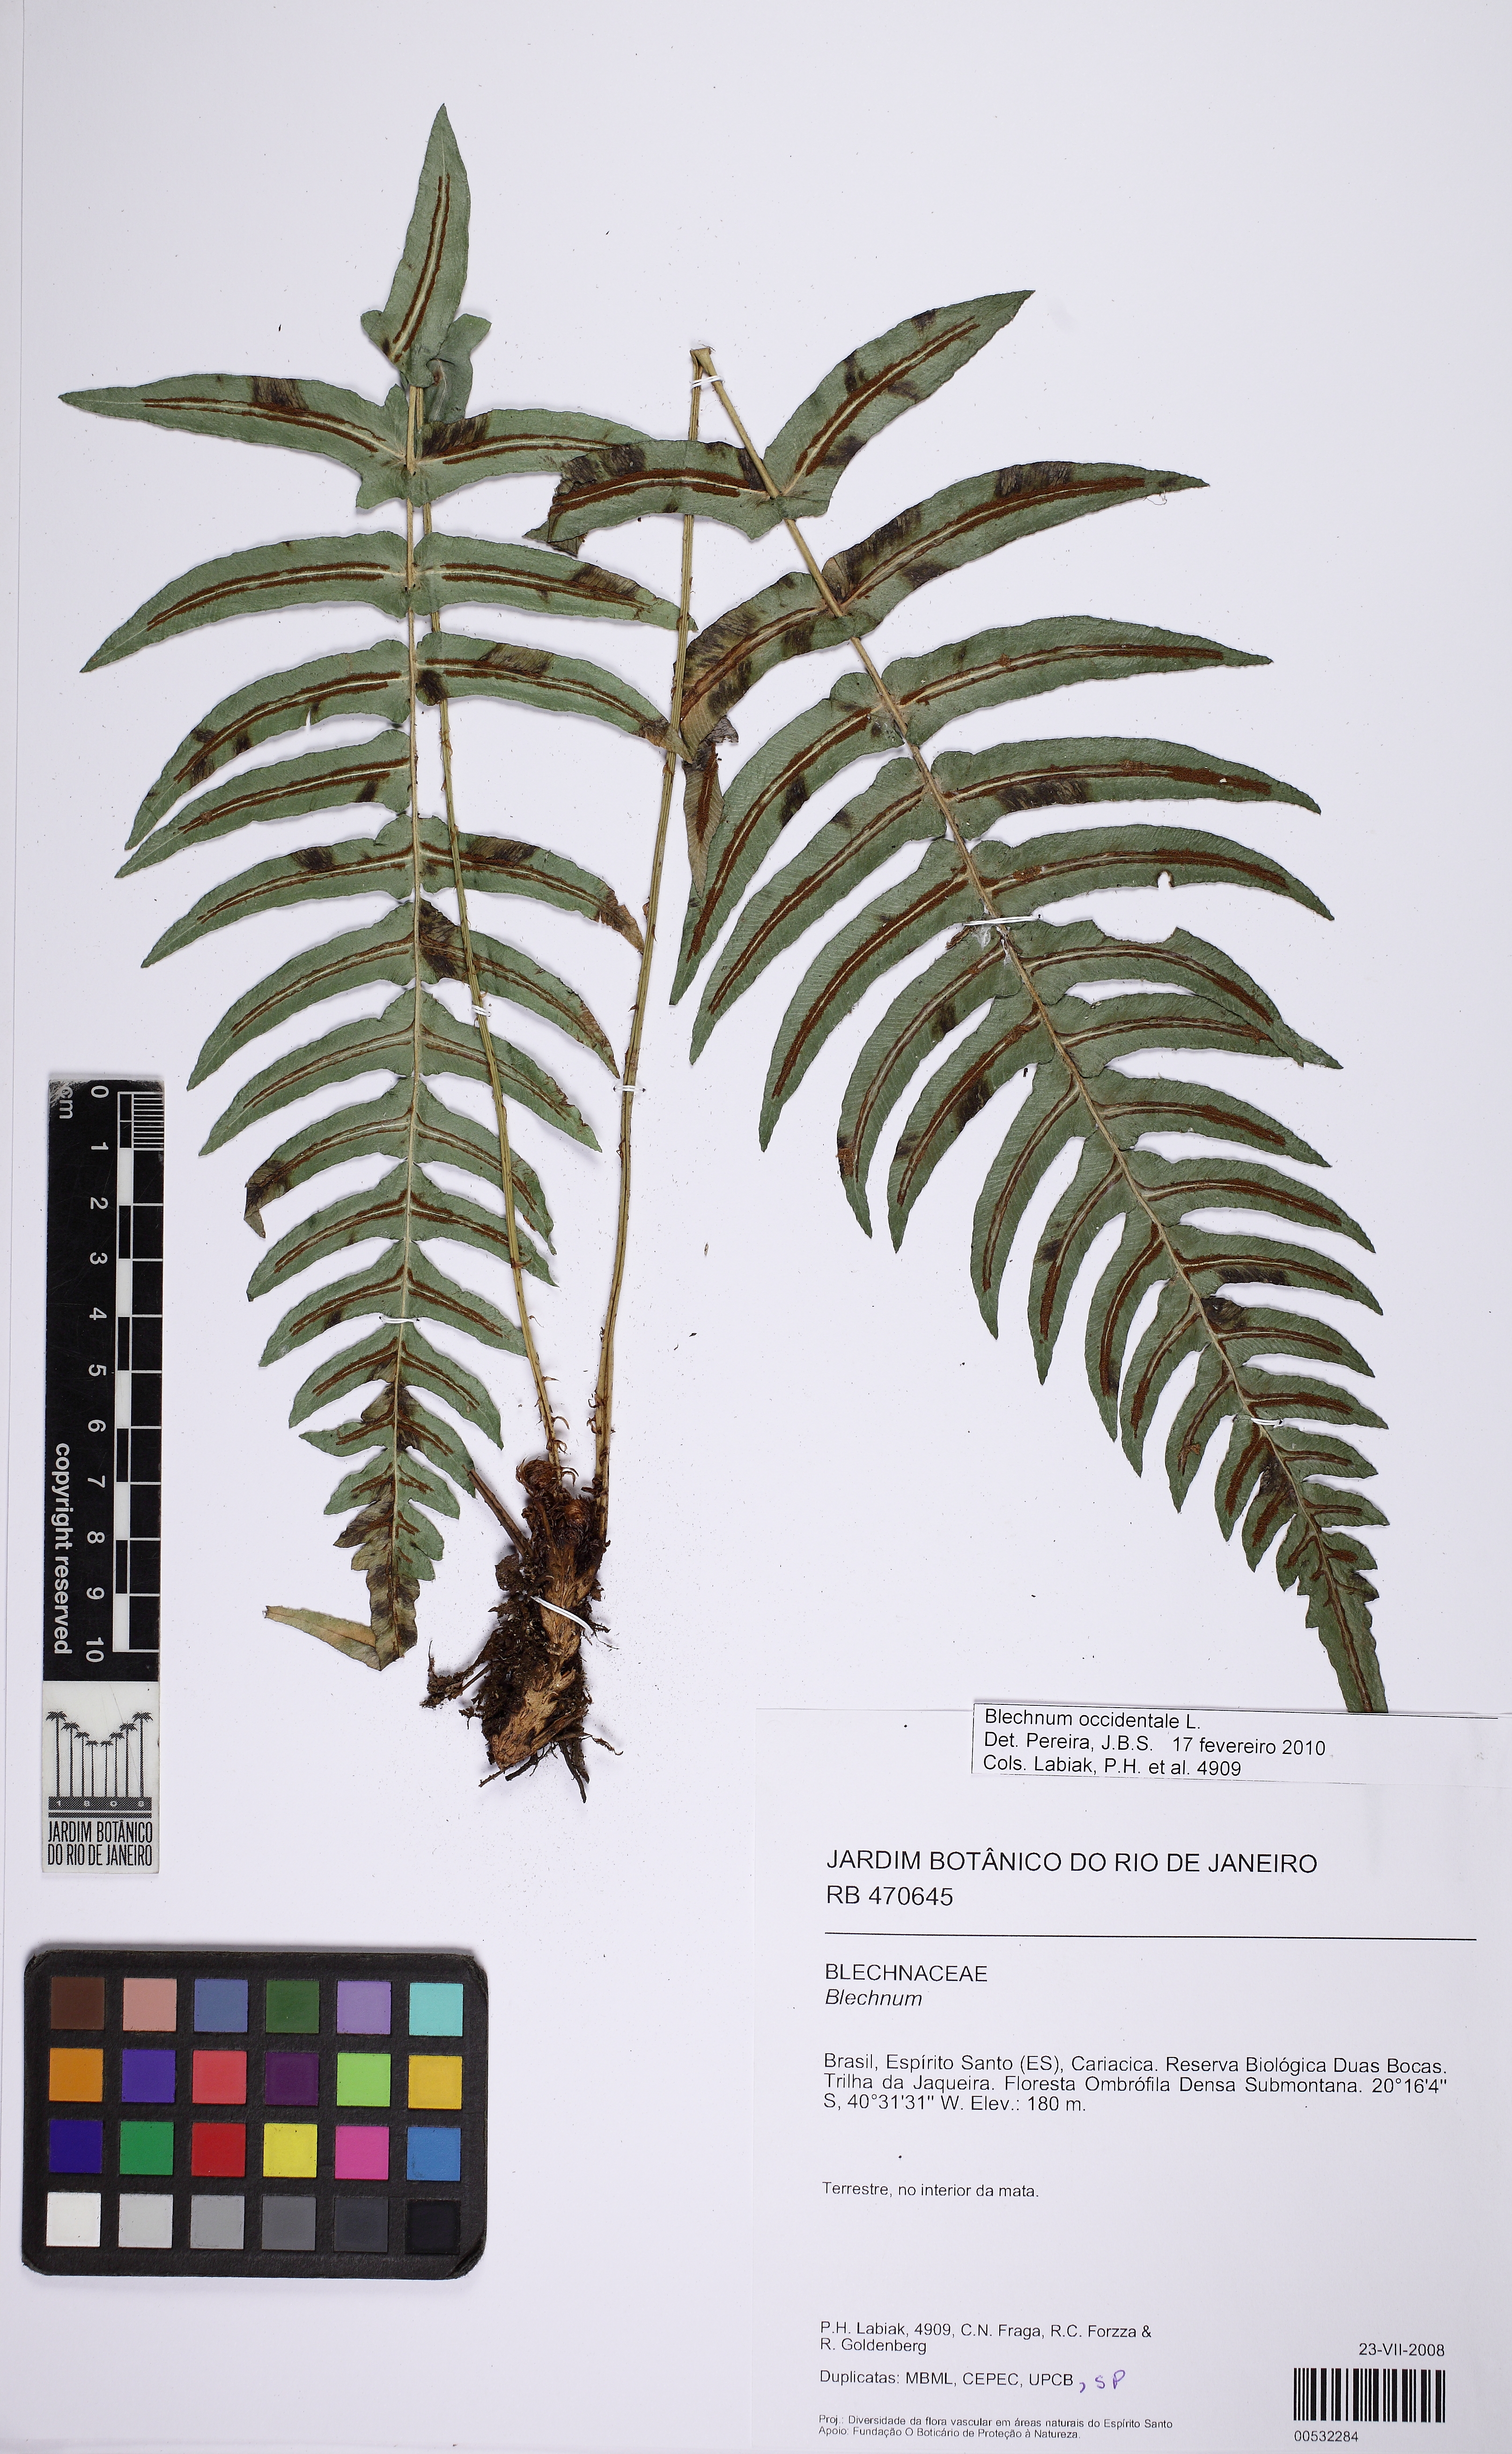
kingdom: Plantae
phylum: Tracheophyta
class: Polypodiopsida
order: Polypodiales
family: Blechnaceae
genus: Blechnum
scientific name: Blechnum occidentale
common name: Hammock fern
